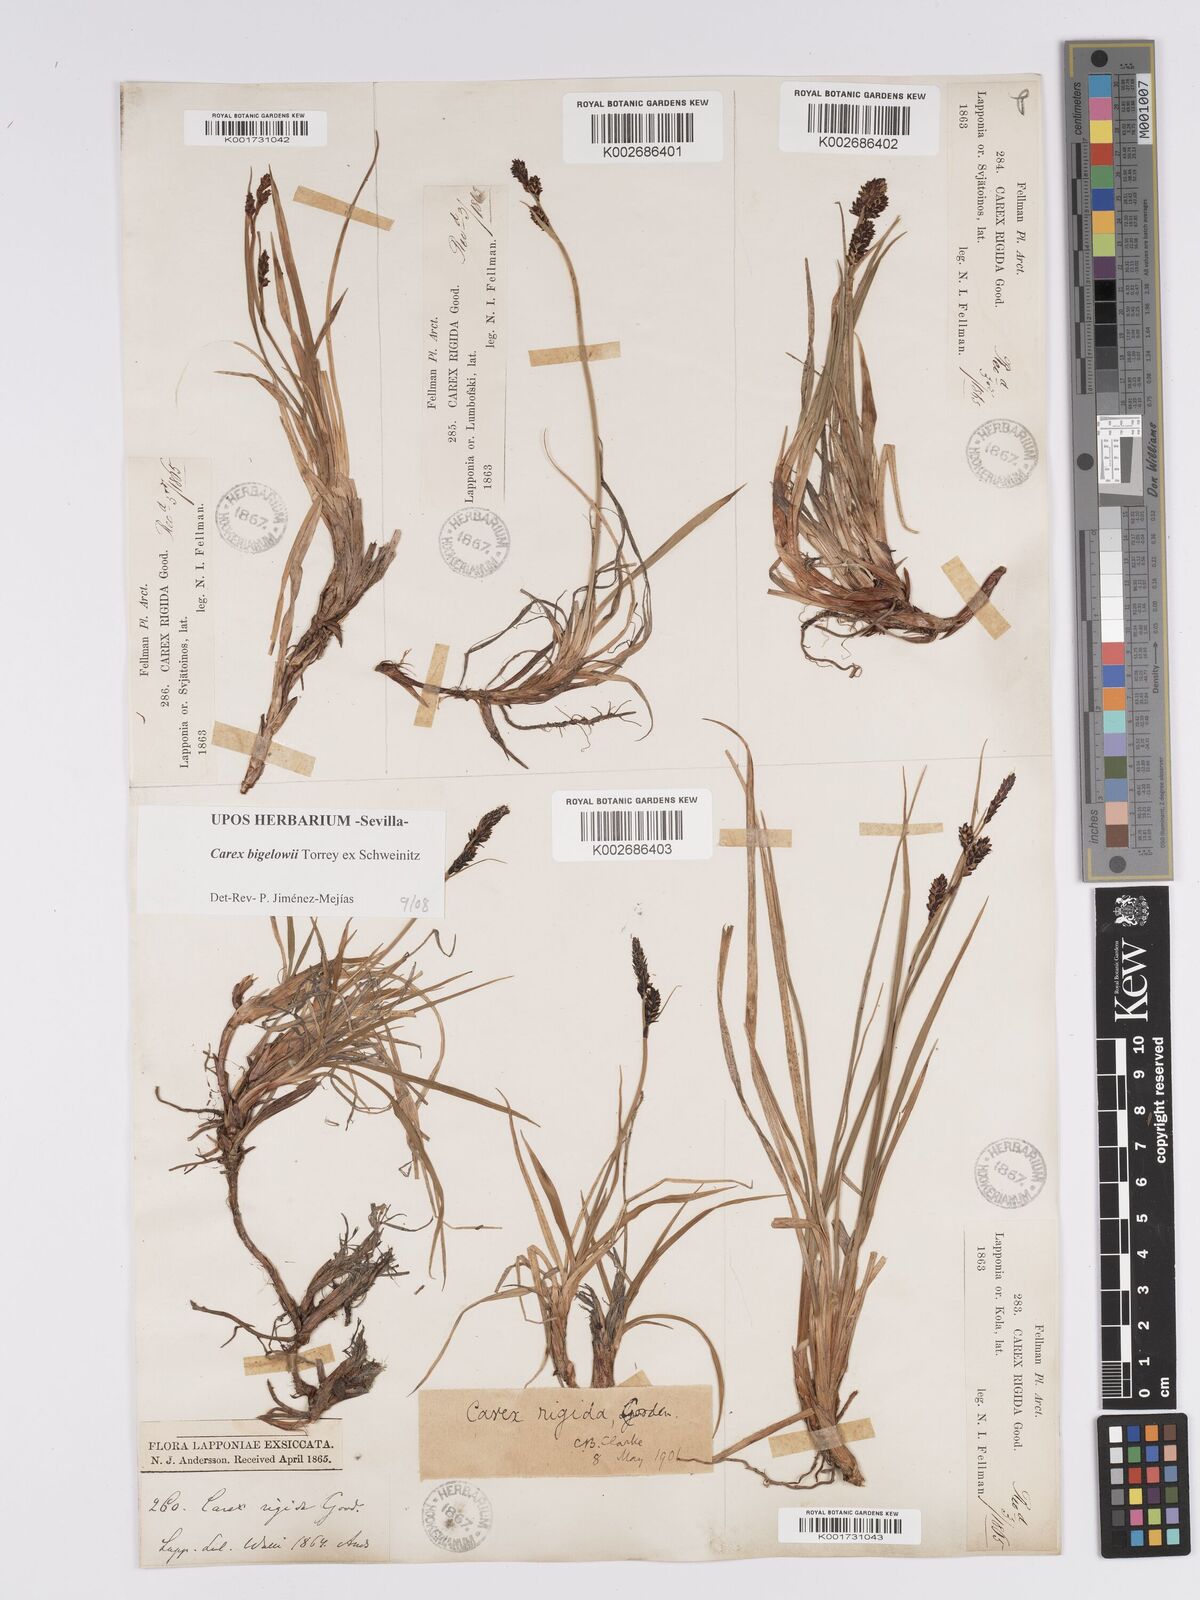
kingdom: Plantae
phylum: Tracheophyta
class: Liliopsida
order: Poales
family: Cyperaceae
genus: Carex
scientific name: Carex bigelowii
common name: Stiff sedge
